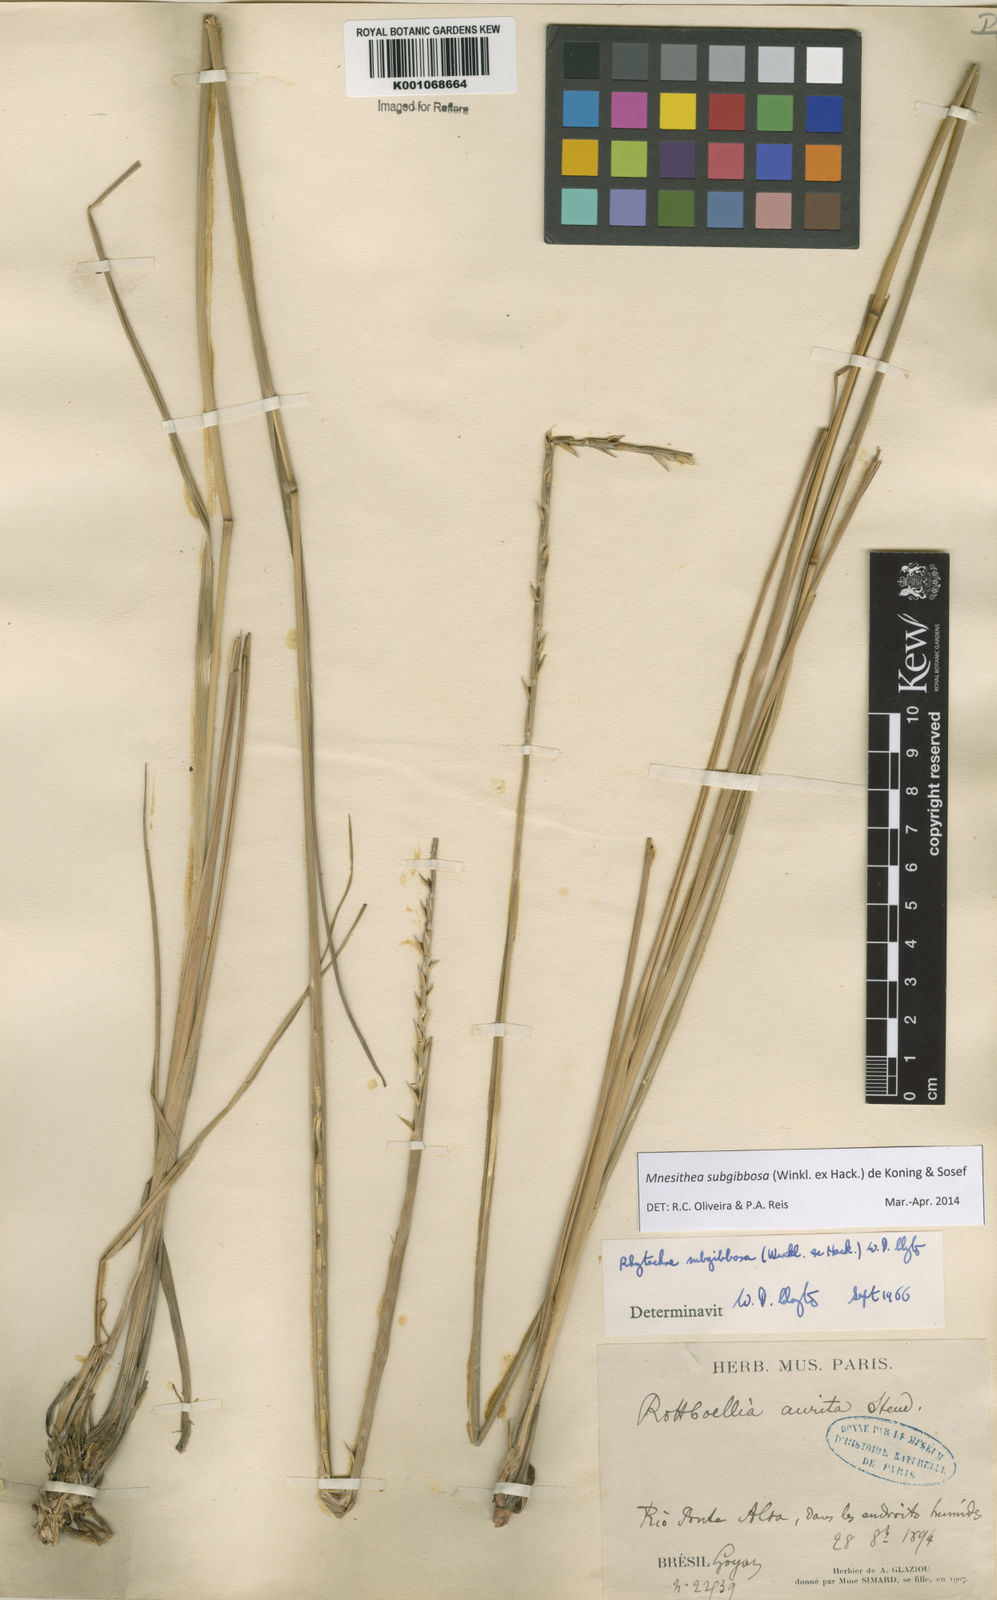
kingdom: Plantae
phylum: Tracheophyta
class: Liliopsida
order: Poales
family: Poaceae
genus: Rhytachne
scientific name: Rhytachne subgibbosa
